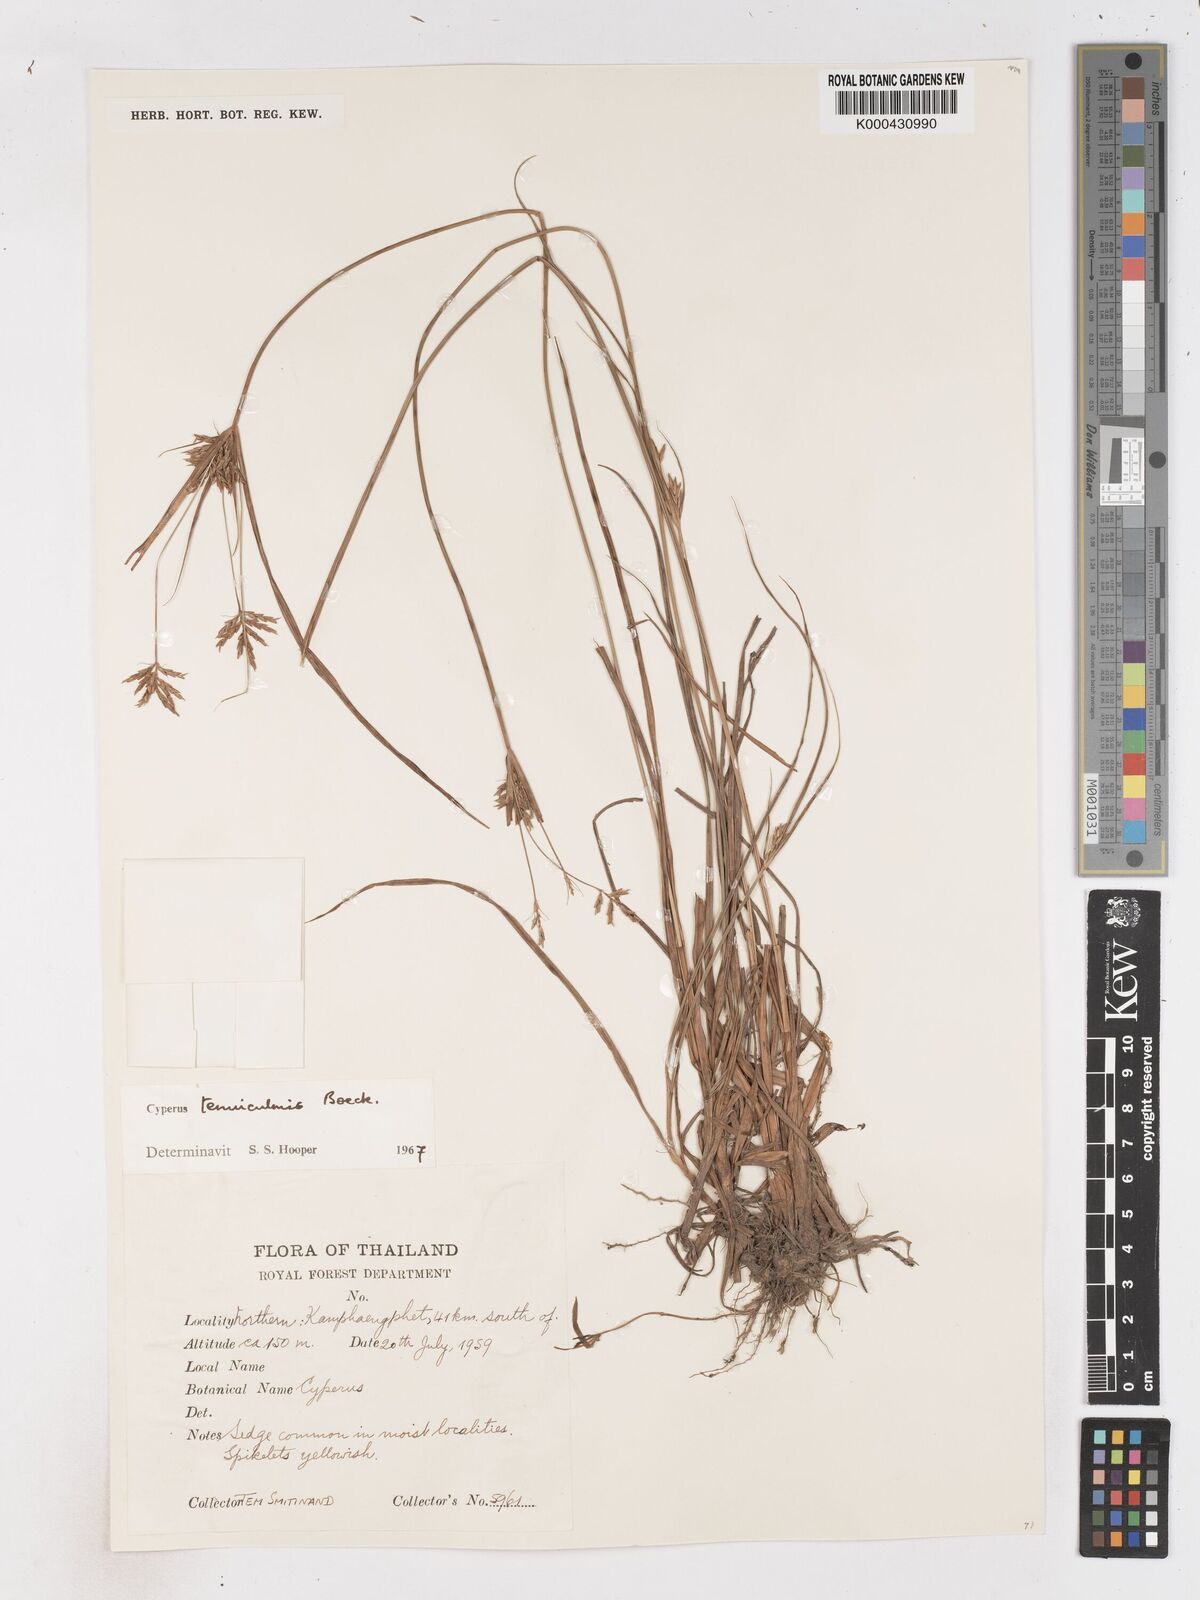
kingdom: Plantae
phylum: Tracheophyta
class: Liliopsida
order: Poales
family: Cyperaceae
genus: Cyperus
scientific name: Cyperus tenuiculmis
